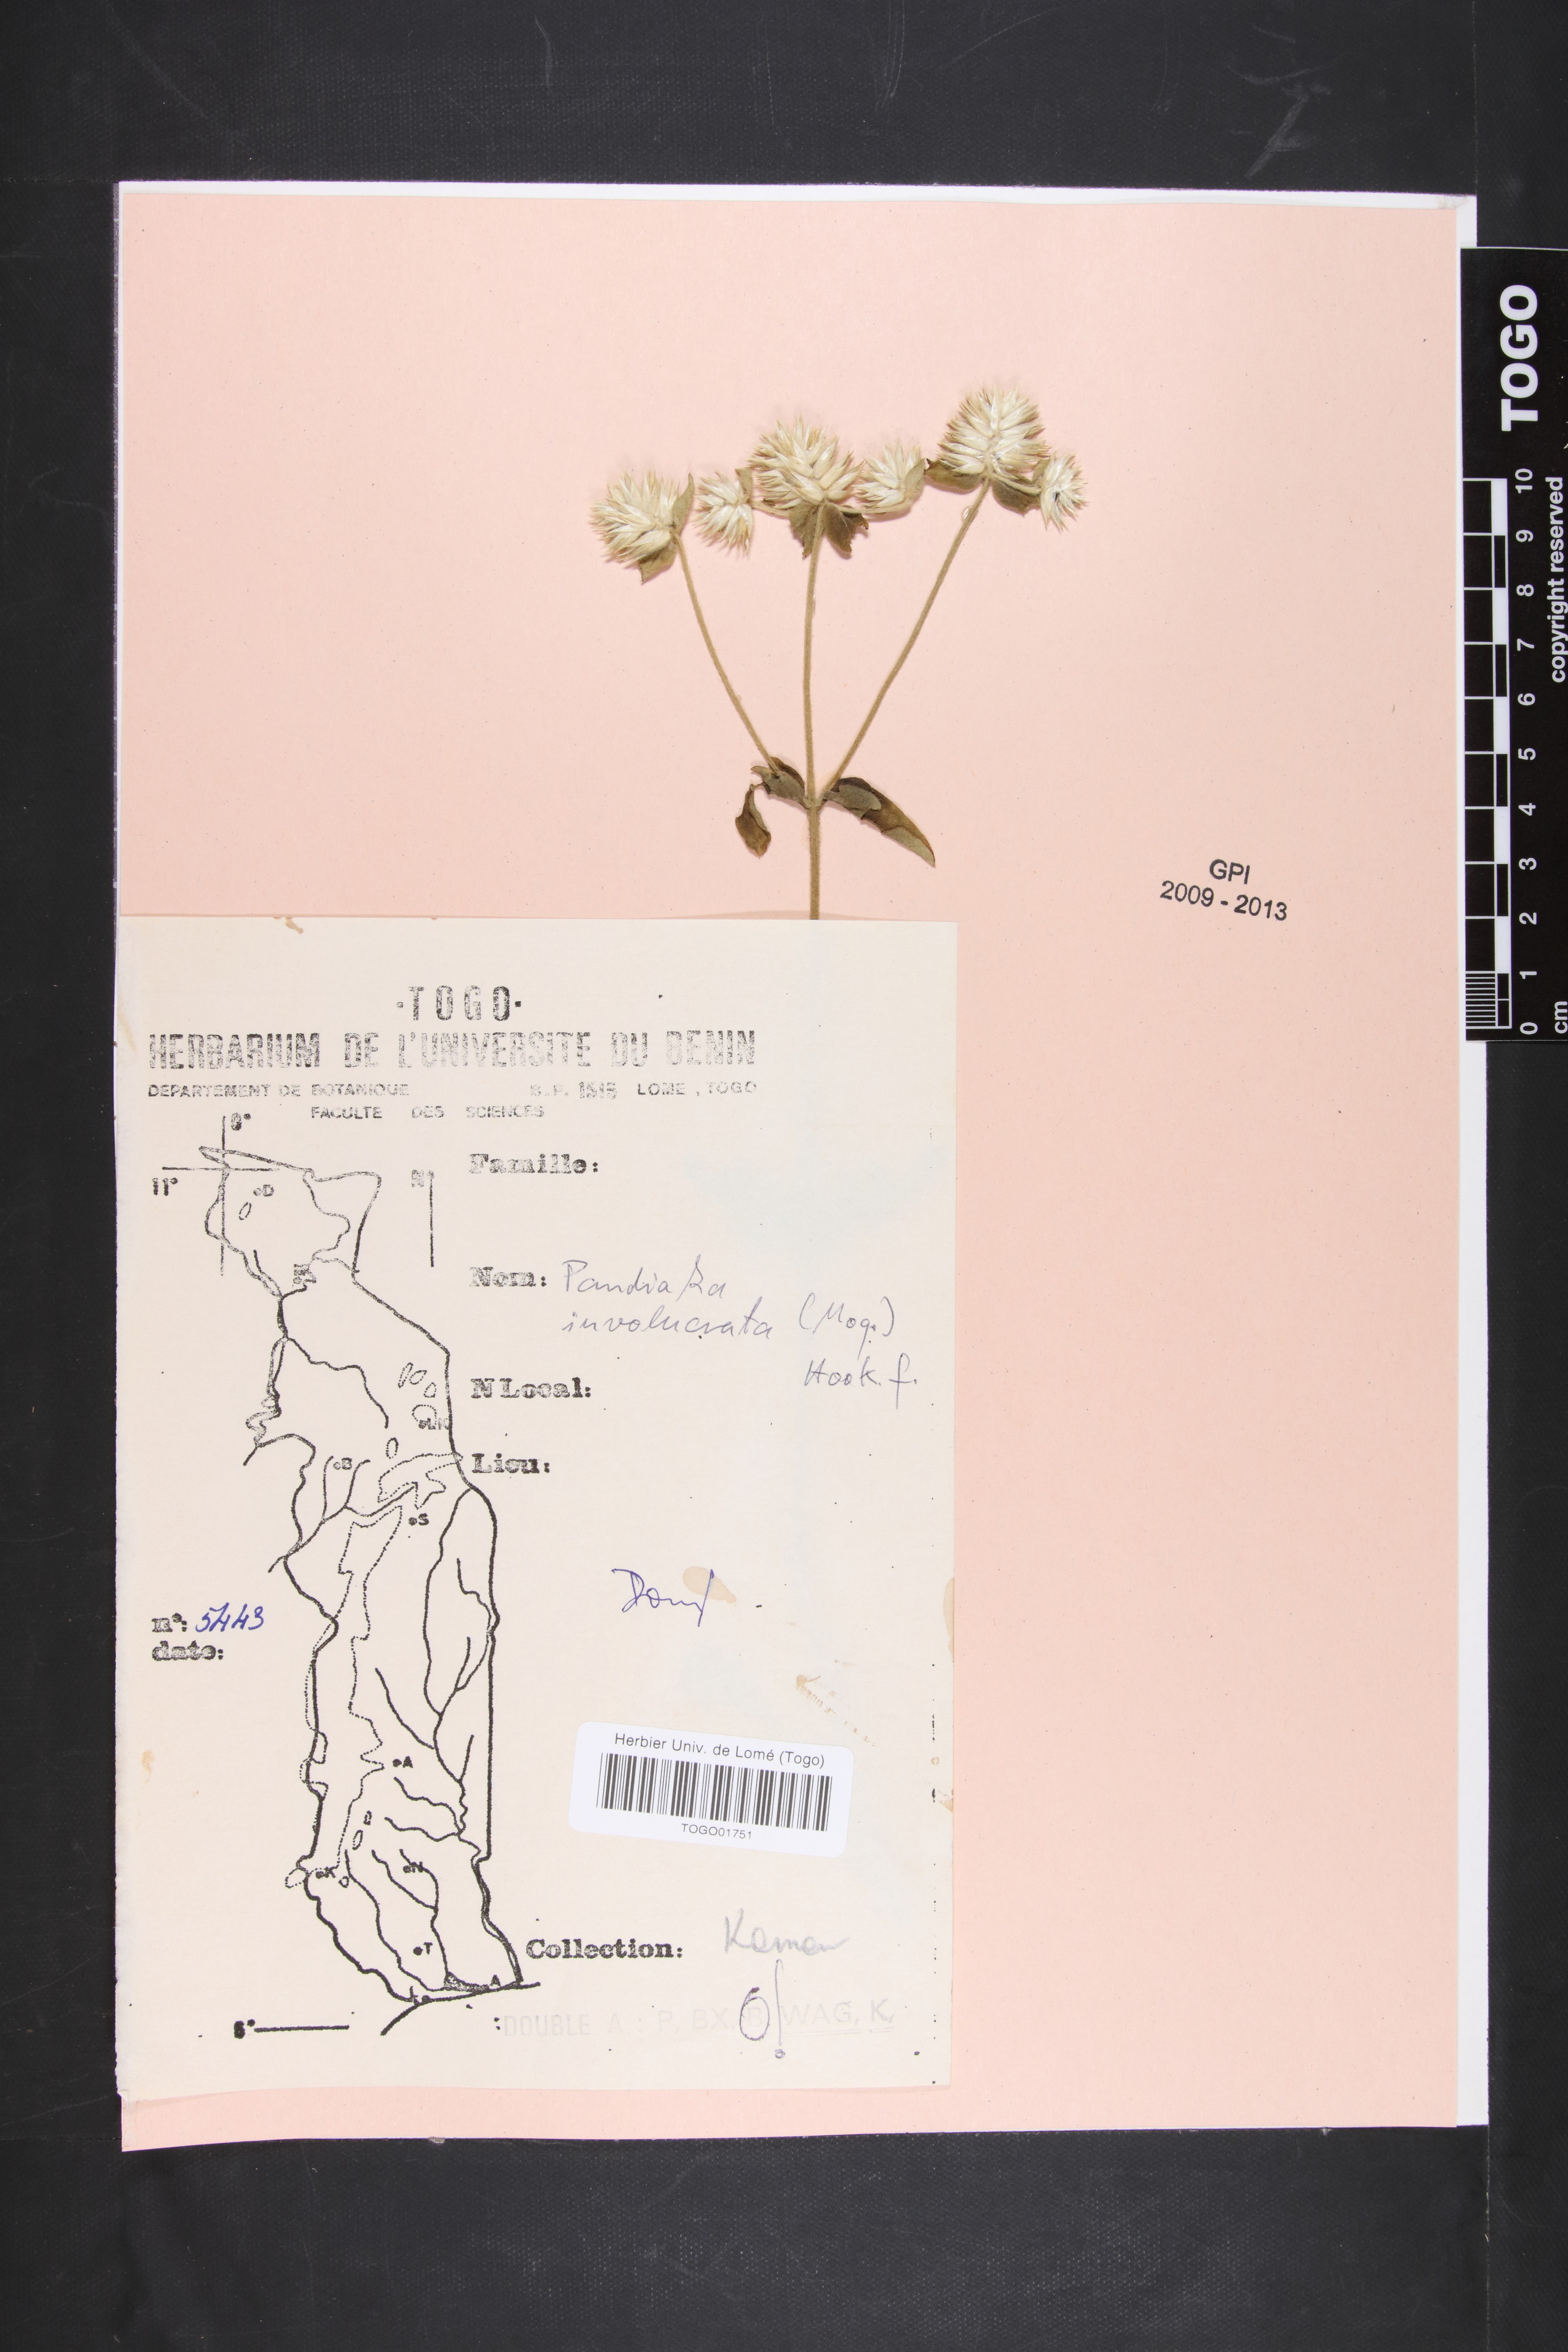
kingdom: Plantae
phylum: Tracheophyta
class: Magnoliopsida
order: Caryophyllales
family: Amaranthaceae
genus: Pandiaka
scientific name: Pandiaka involucrata
